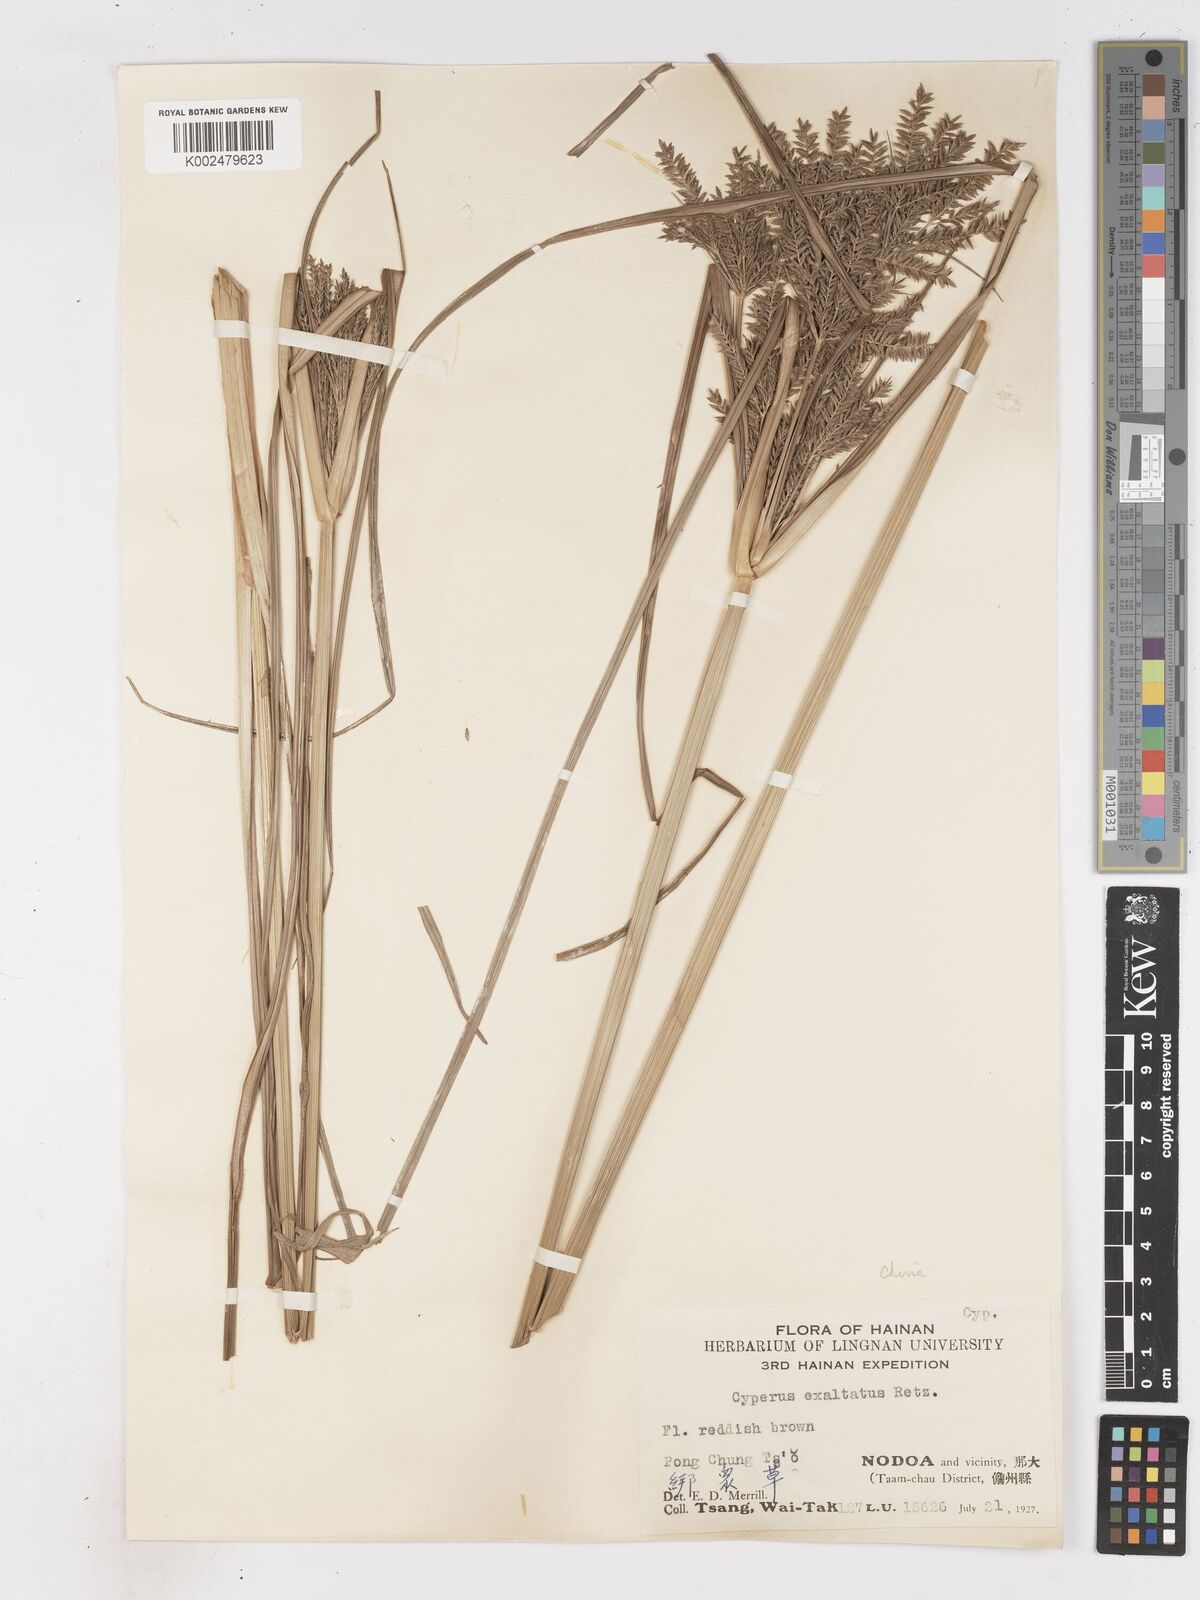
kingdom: Plantae
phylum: Tracheophyta
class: Liliopsida
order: Poales
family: Cyperaceae
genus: Cyperus
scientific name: Cyperus exaltatus
